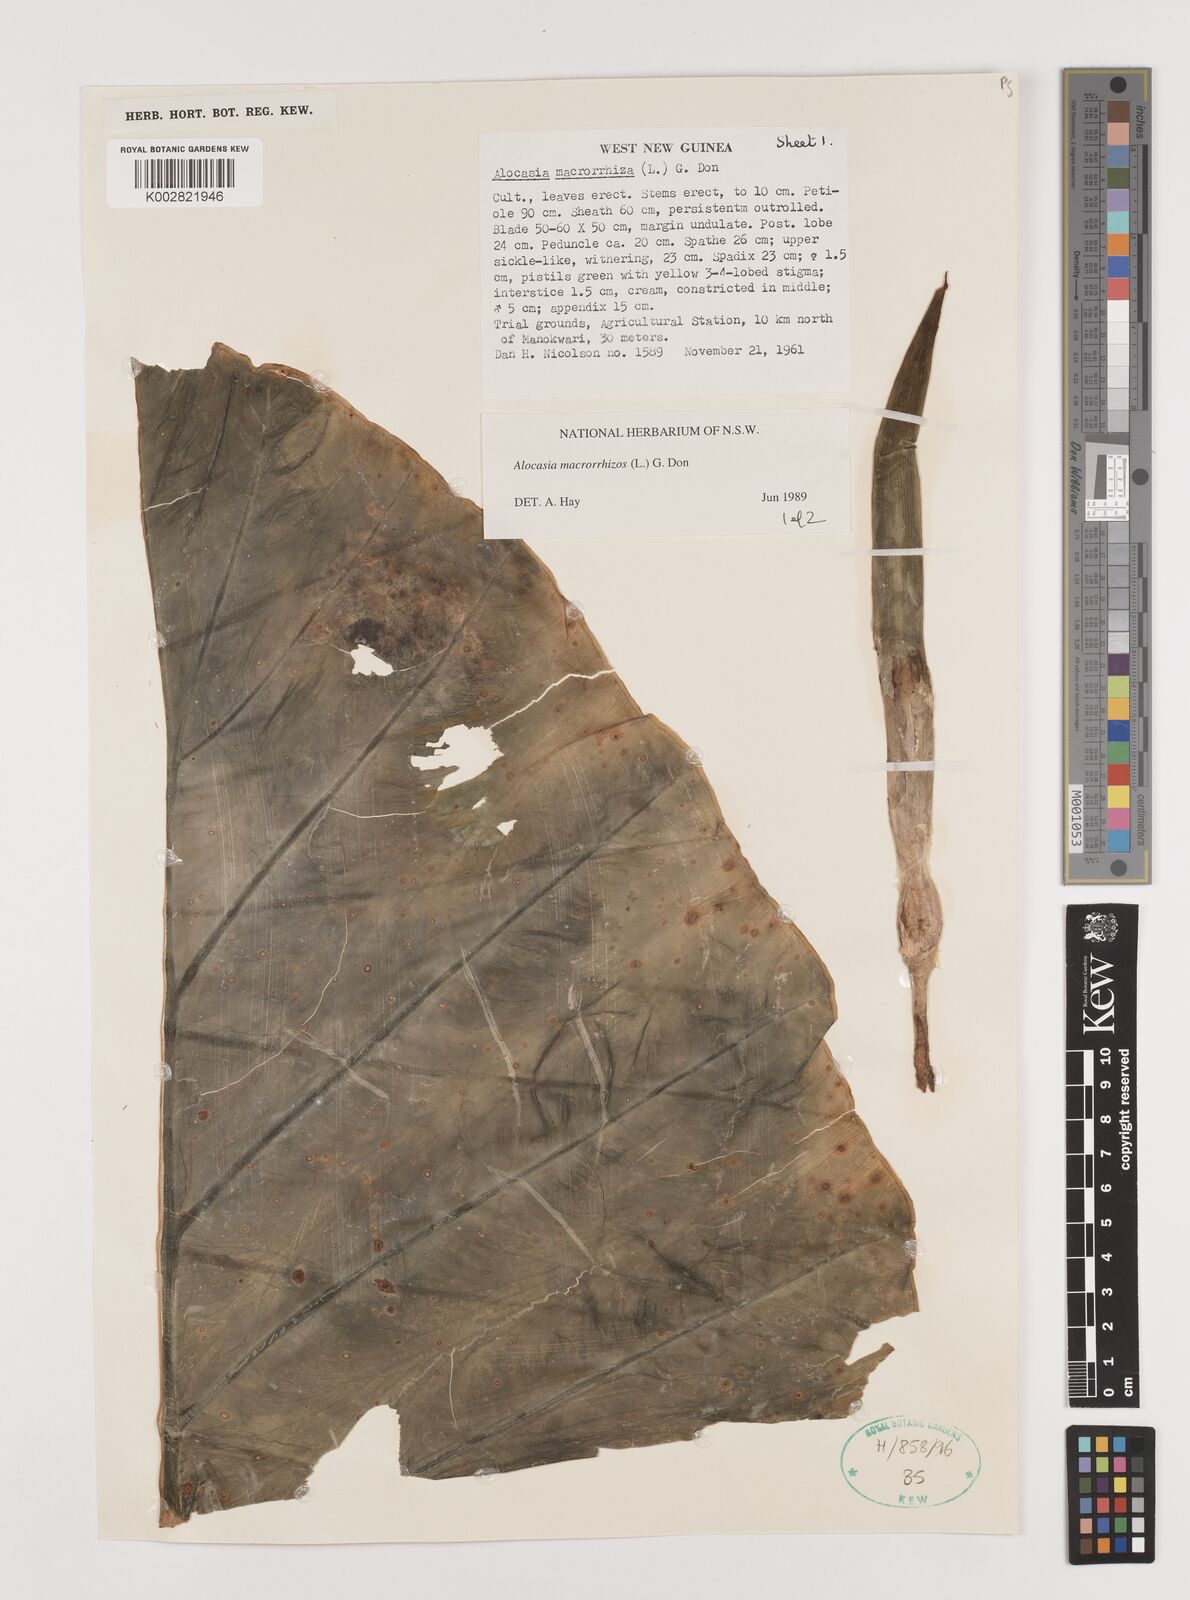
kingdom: Plantae
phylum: Tracheophyta
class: Liliopsida
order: Alismatales
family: Araceae
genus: Alocasia
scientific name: Alocasia macrorrhizos
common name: Giant taro
